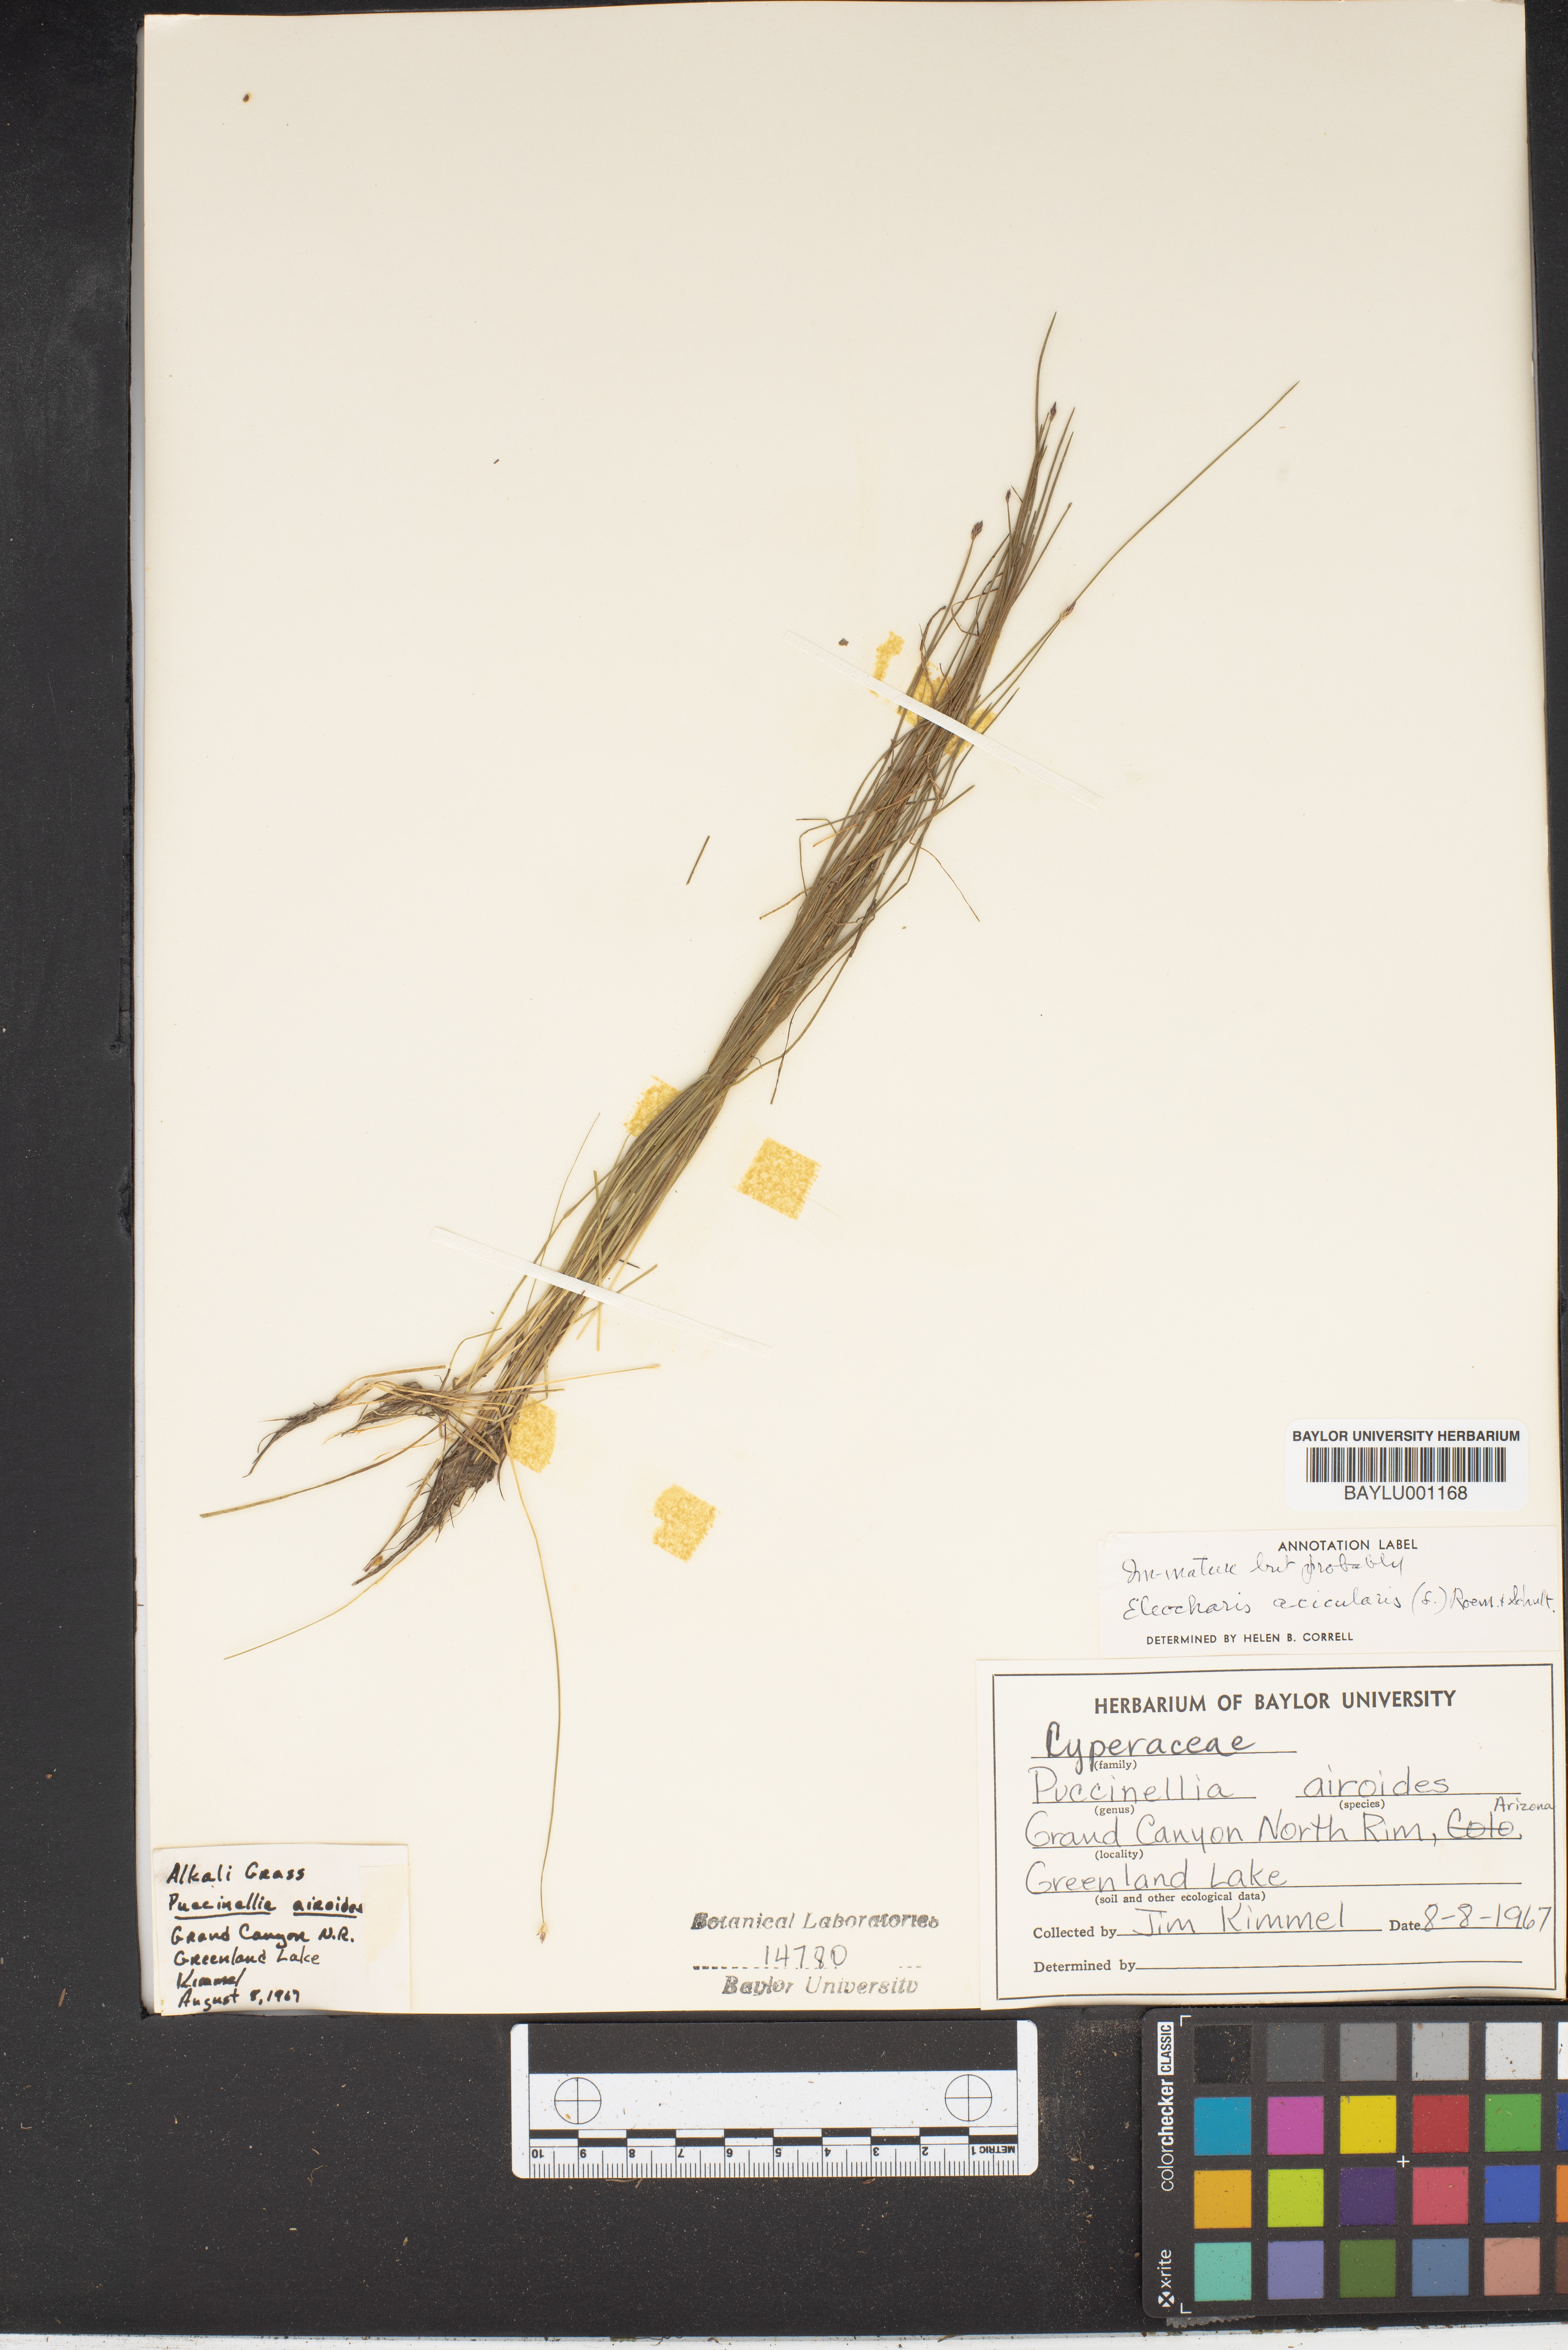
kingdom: Plantae
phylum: Tracheophyta
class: Liliopsida
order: Poales
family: Cyperaceae
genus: Eleocharis
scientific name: Eleocharis acicularis
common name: Needle spike-rush
